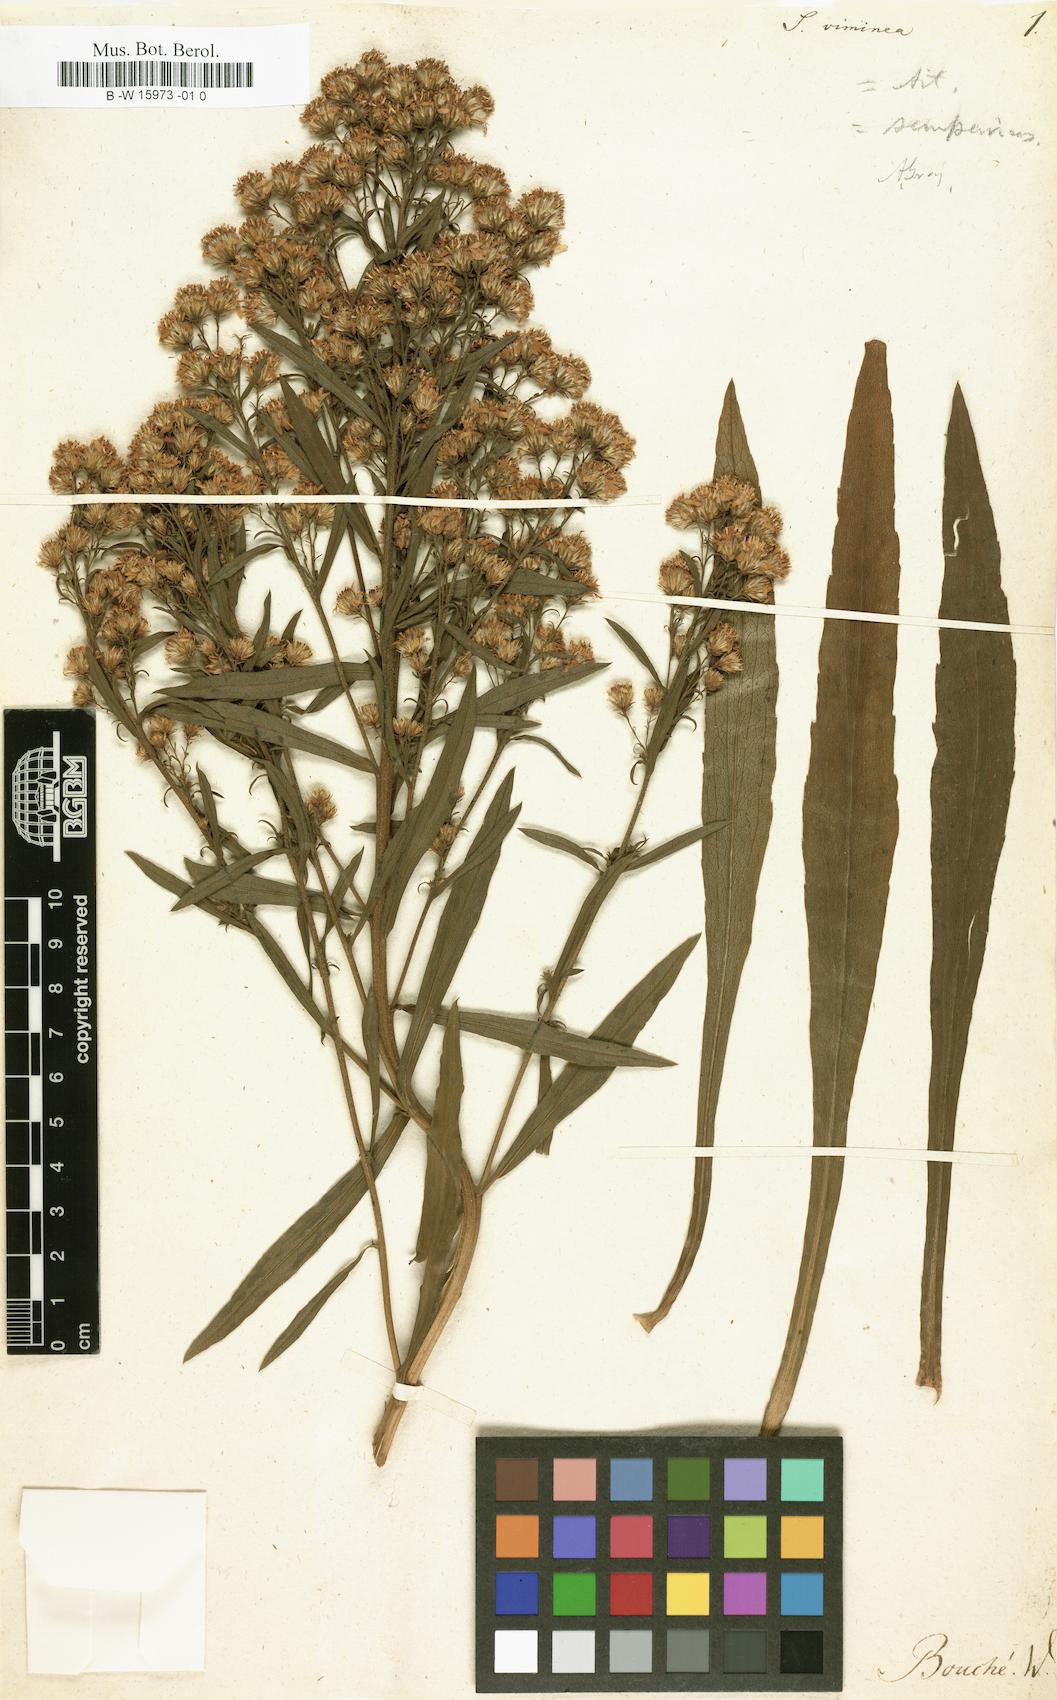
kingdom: Plantae
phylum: Tracheophyta
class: Magnoliopsida
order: Asterales
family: Asteraceae
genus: Solidago
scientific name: Solidago
